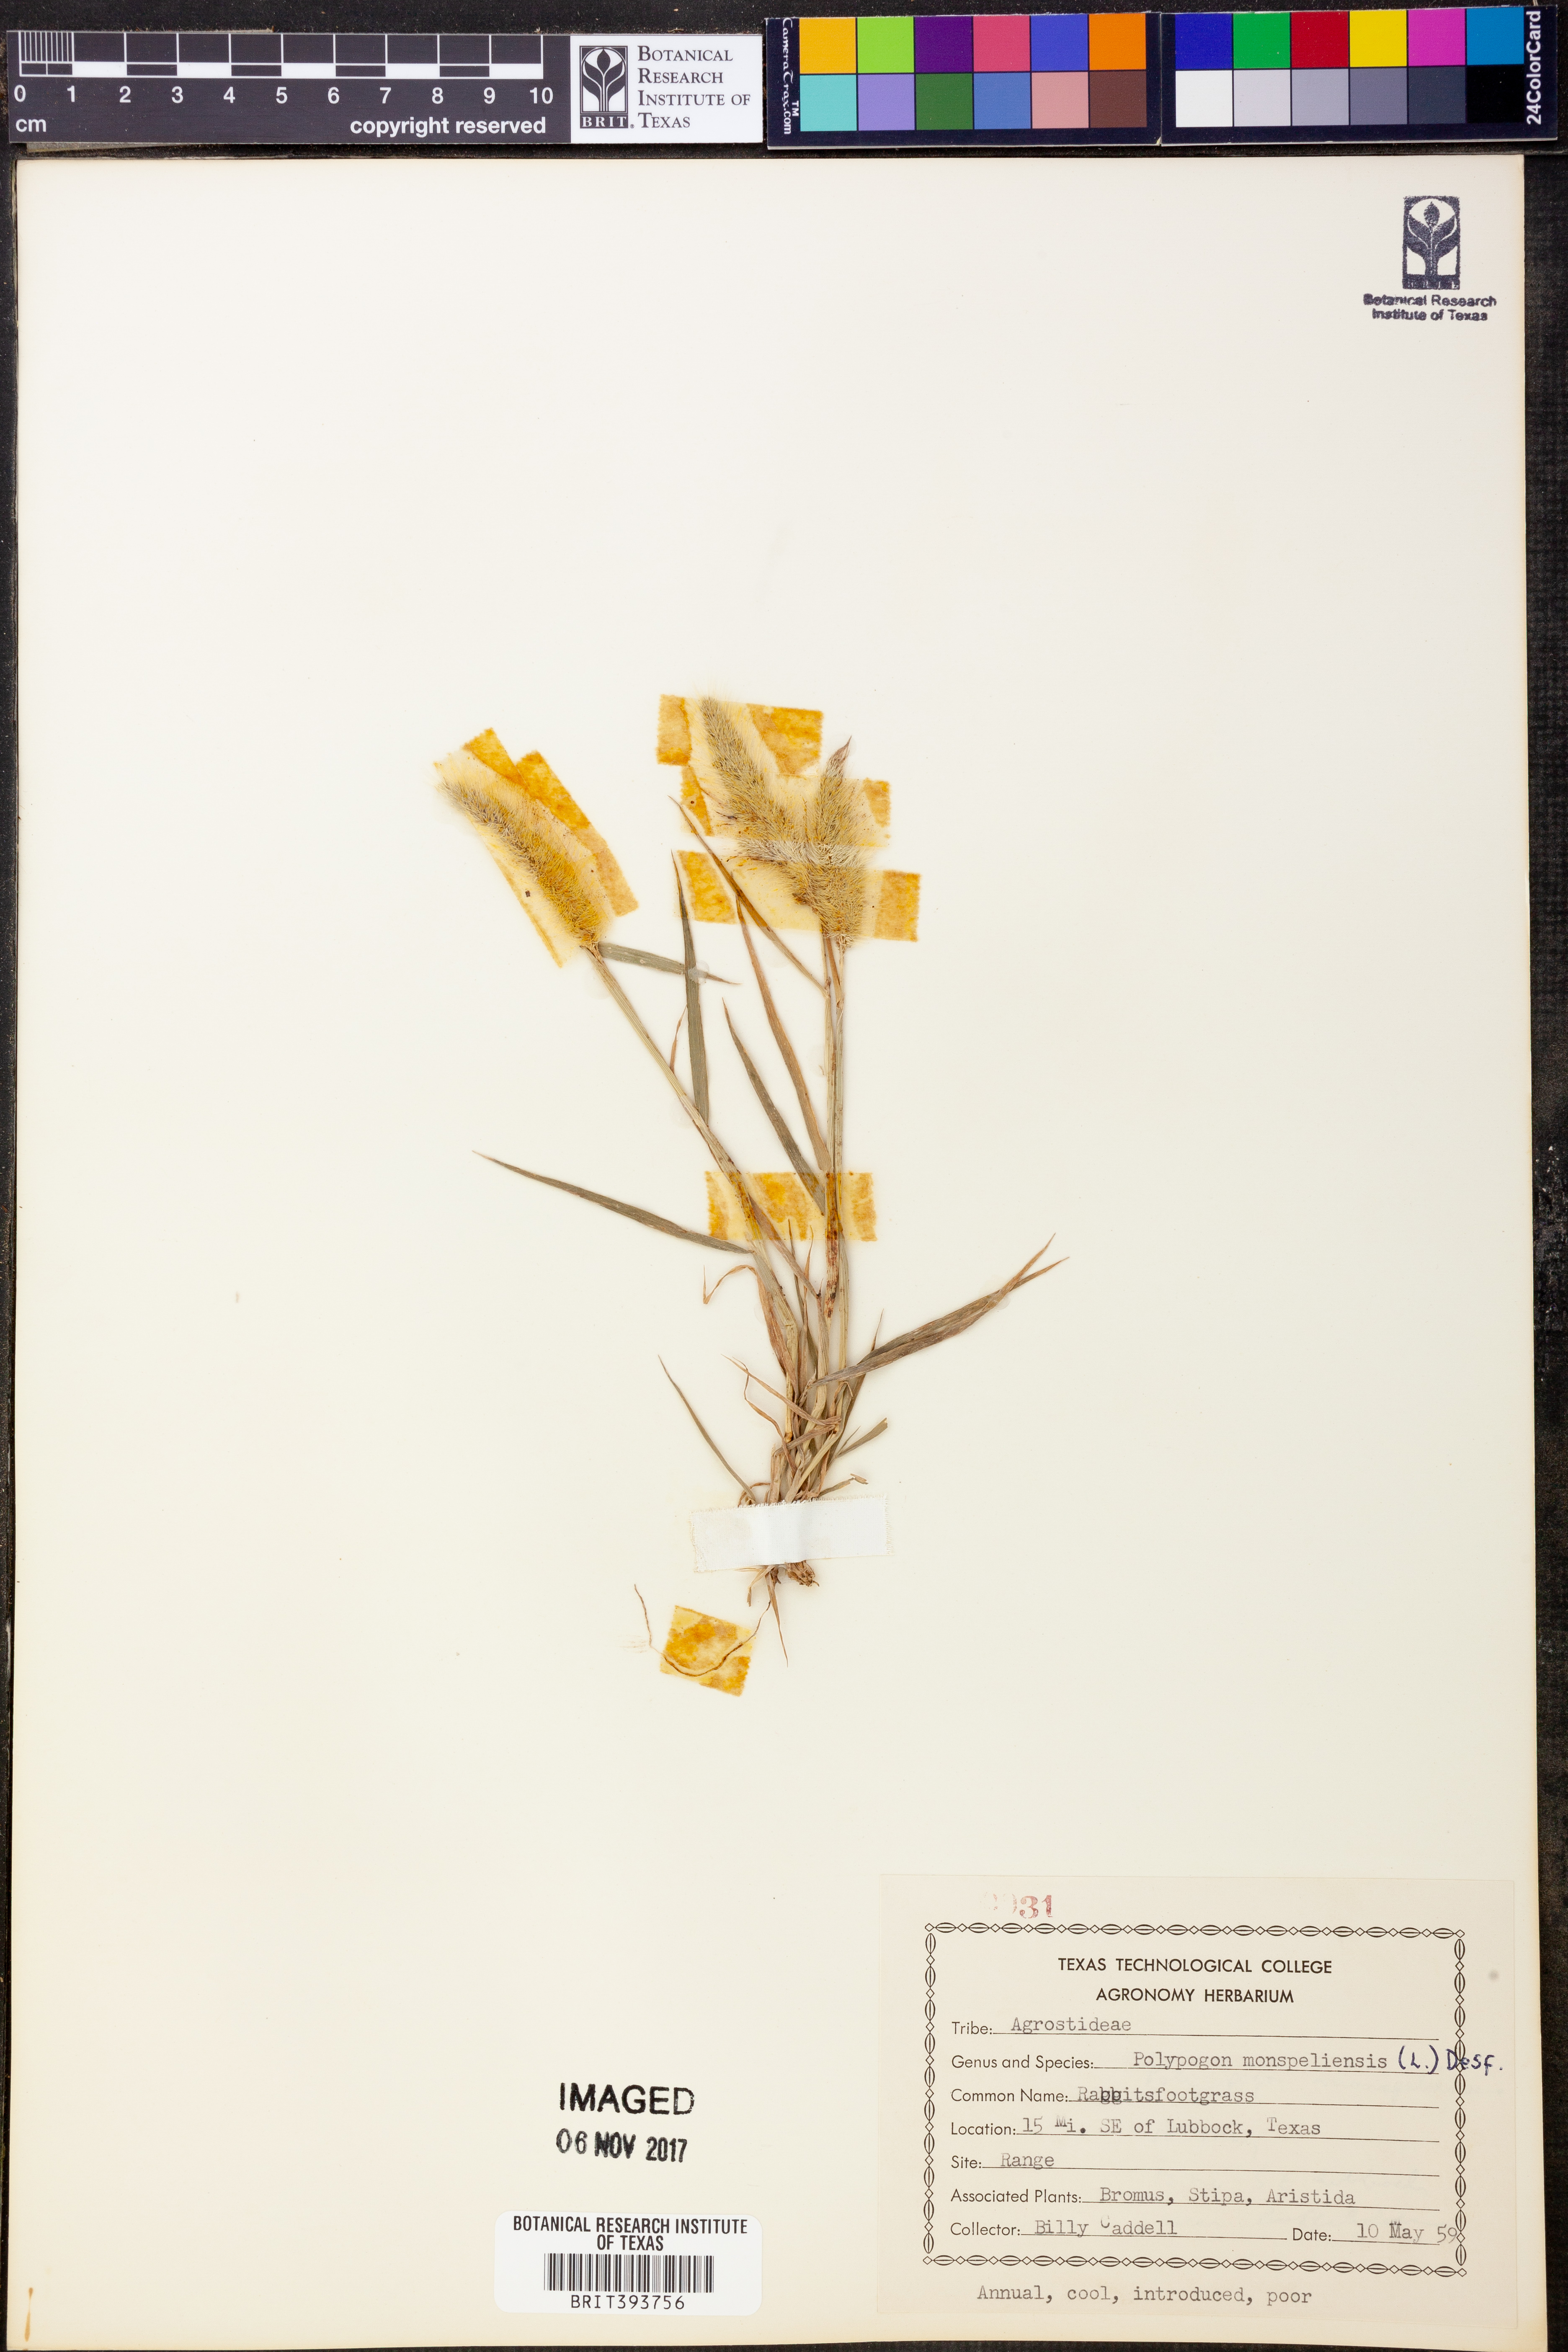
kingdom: Plantae
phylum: Tracheophyta
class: Liliopsida
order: Poales
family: Poaceae
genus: Polypogon
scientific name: Polypogon monspeliensis
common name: Annual rabbitsfoot grass
